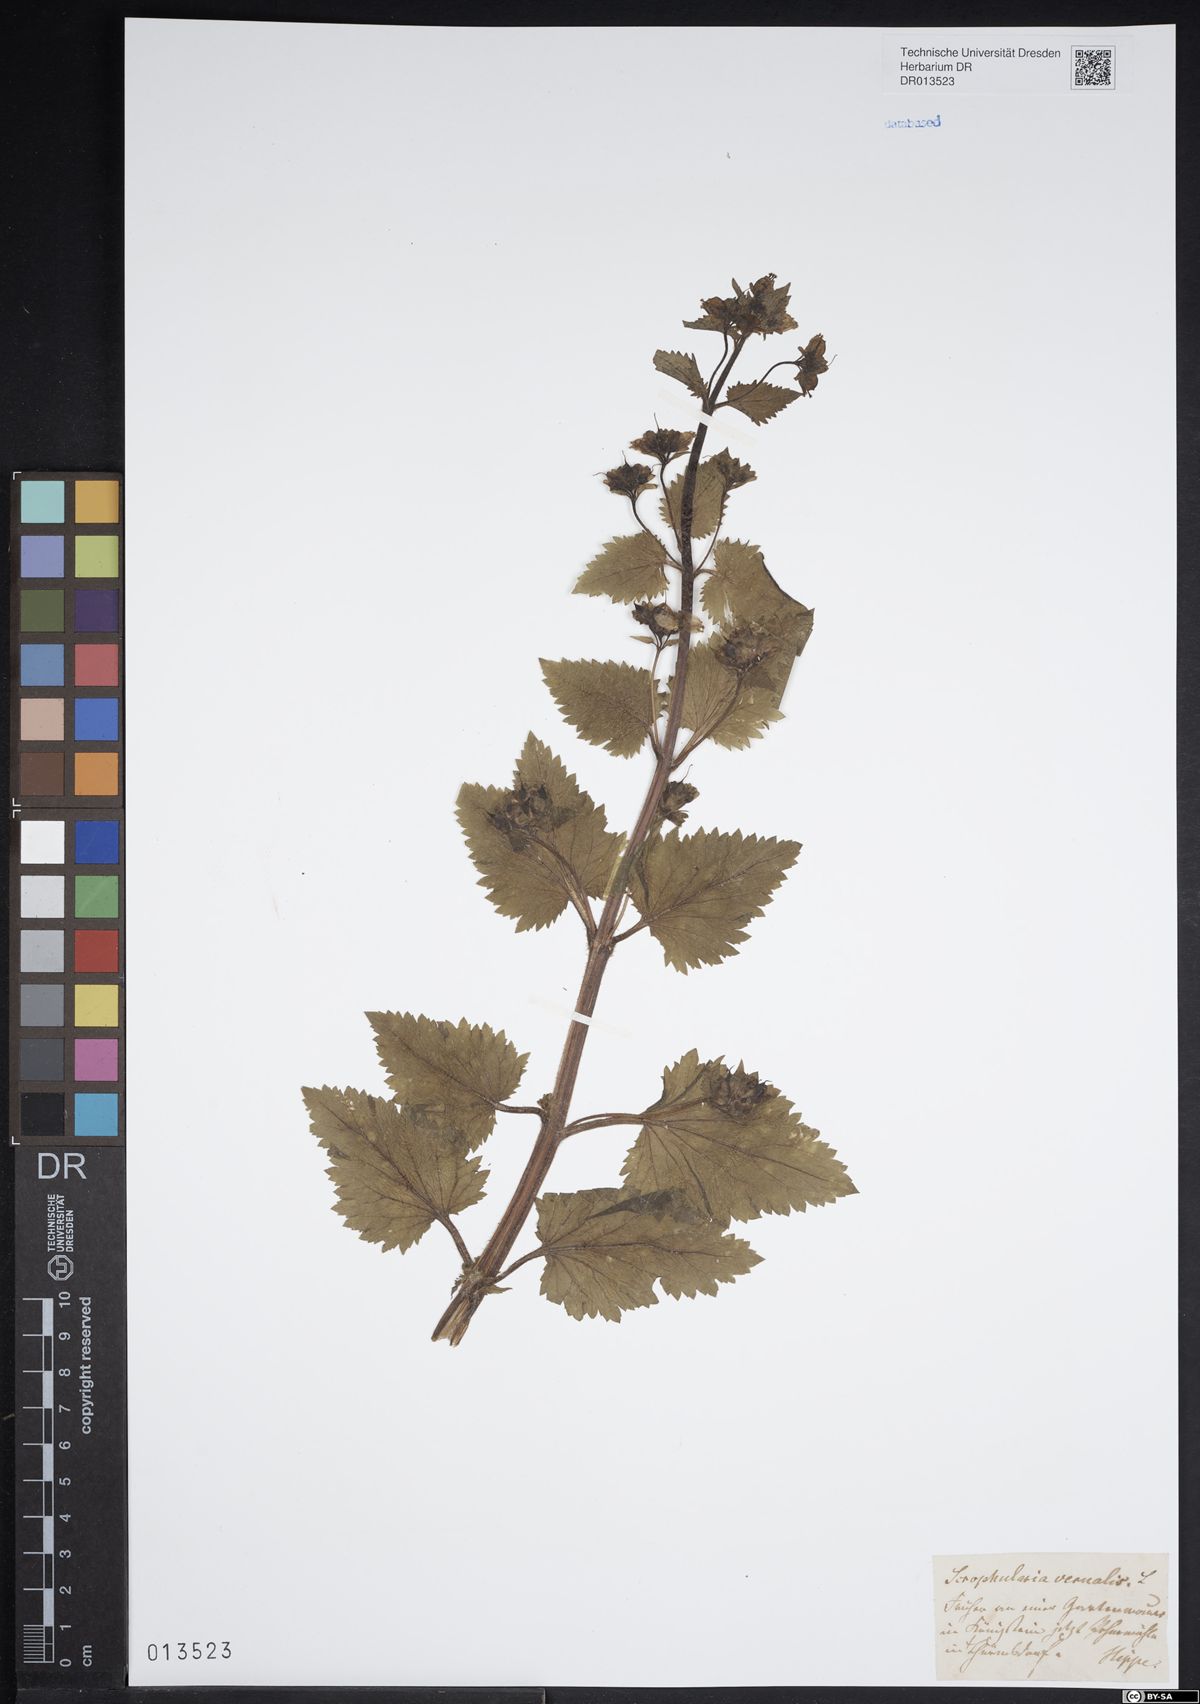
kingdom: Plantae
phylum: Tracheophyta
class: Magnoliopsida
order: Lamiales
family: Scrophulariaceae
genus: Scrophularia
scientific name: Scrophularia vernalis
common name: Yellow figwort
